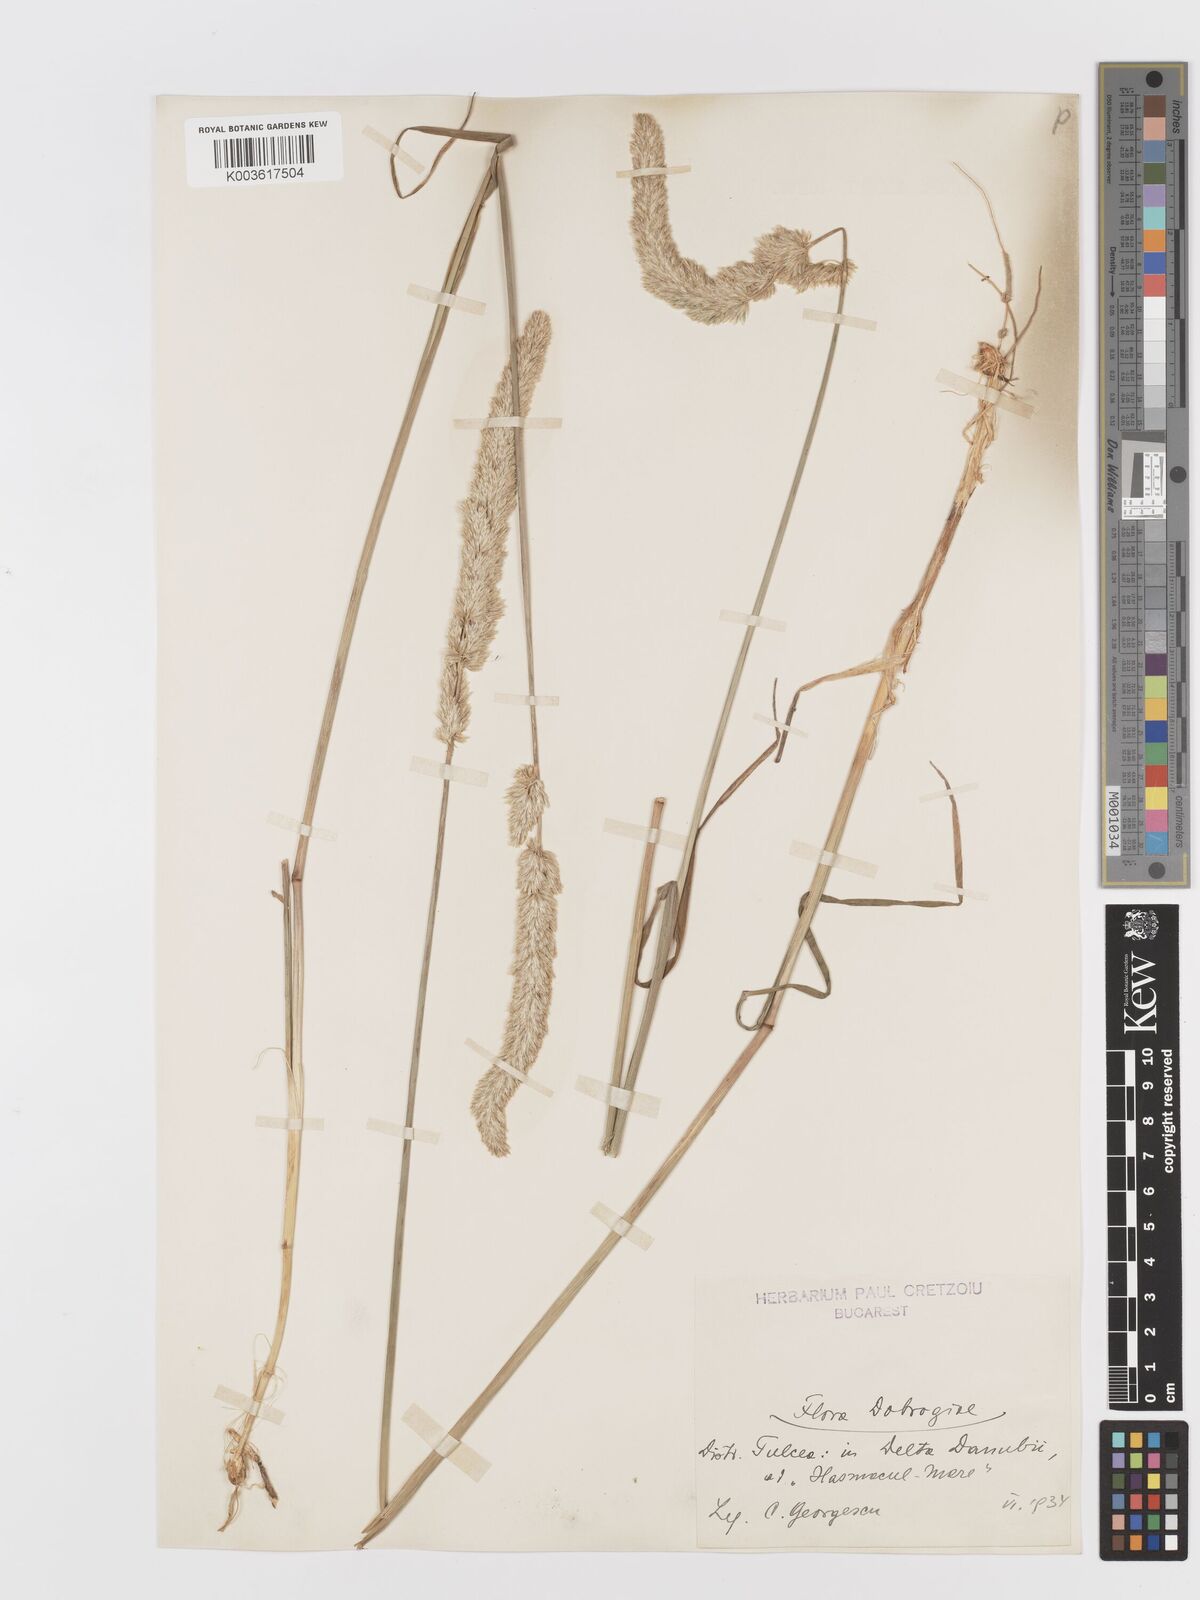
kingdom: Plantae
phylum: Tracheophyta
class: Liliopsida
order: Poales
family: Poaceae
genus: Koeleria
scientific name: Koeleria
